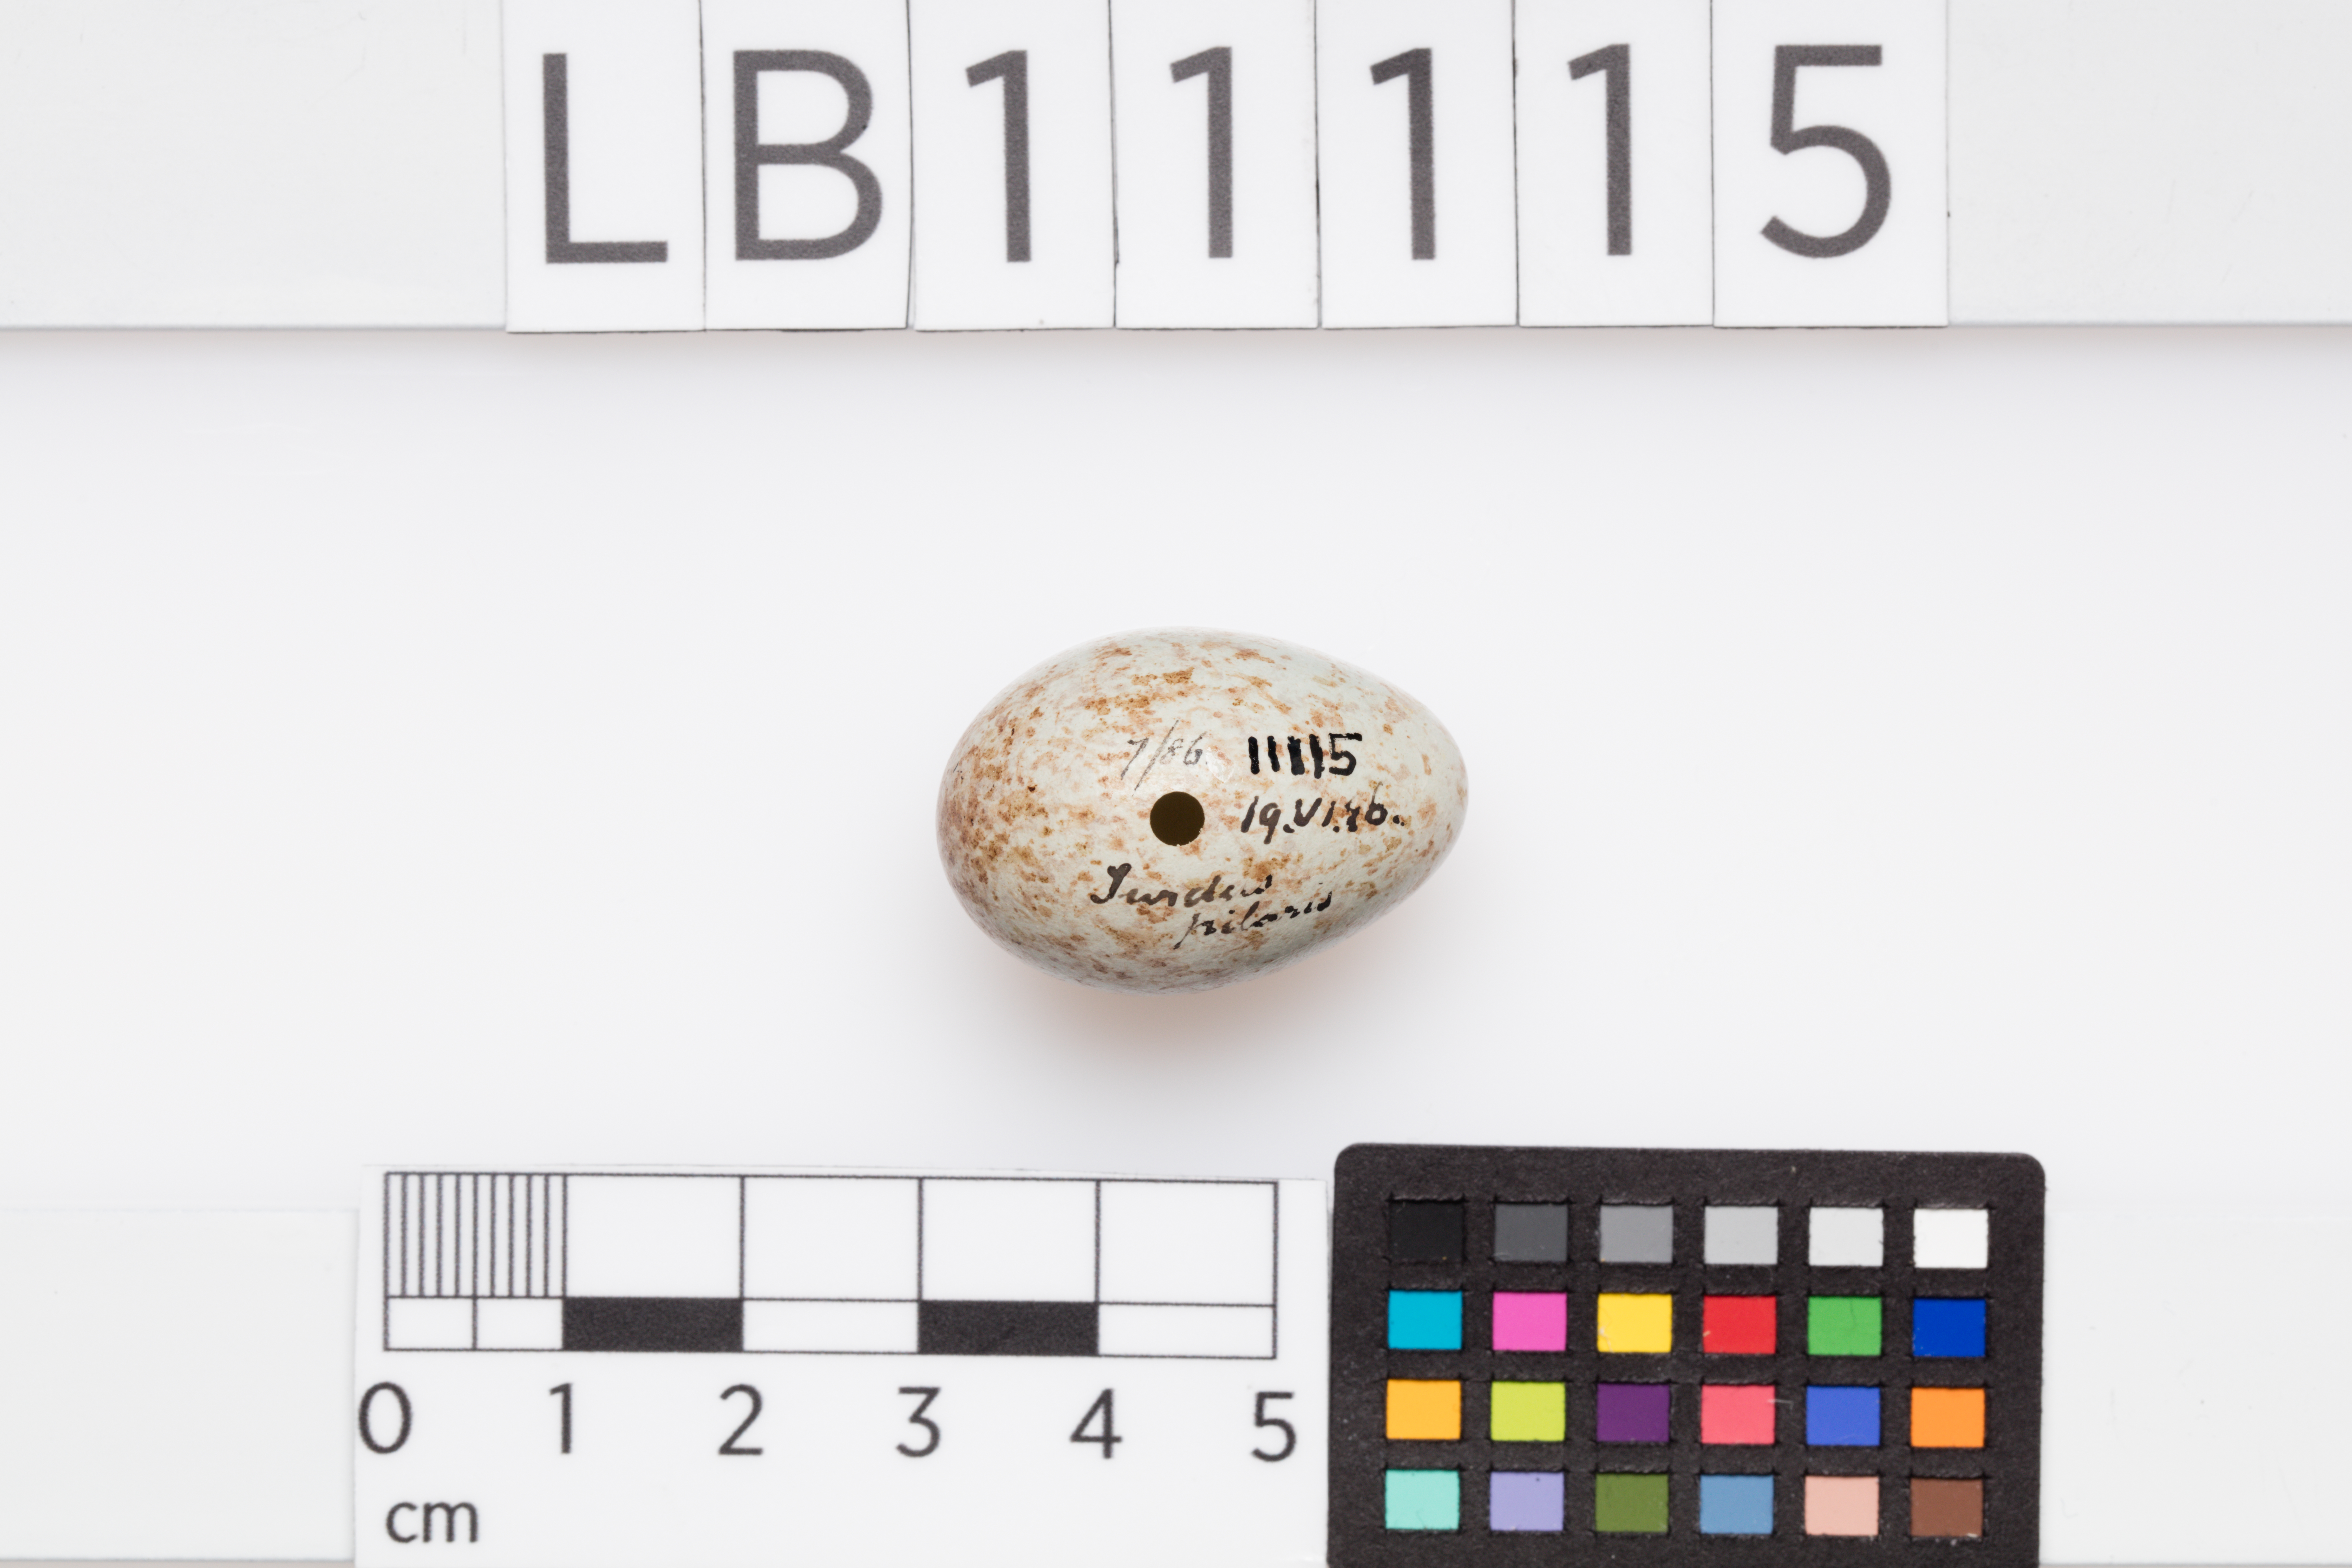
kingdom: Animalia
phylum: Chordata
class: Aves
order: Passeriformes
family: Turdidae
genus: Turdus
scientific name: Turdus pilaris
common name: Fieldfare
